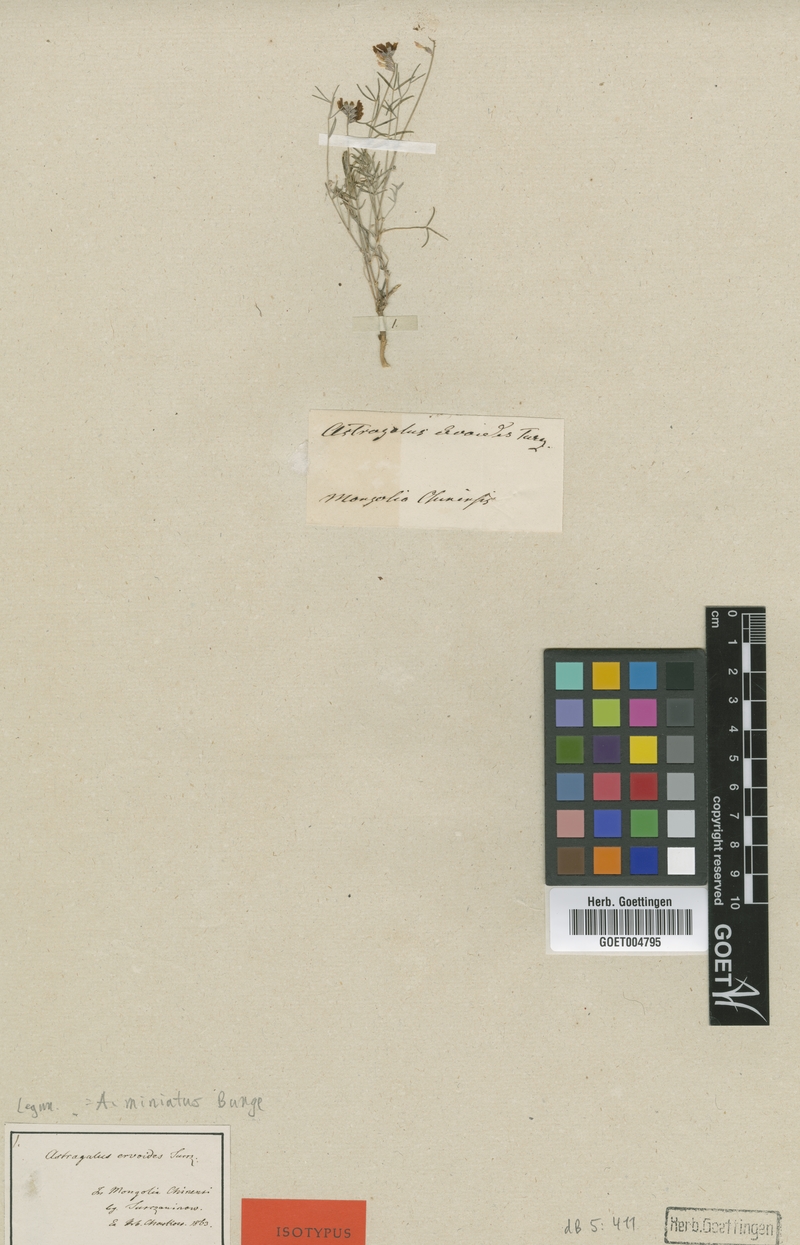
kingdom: Plantae
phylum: Tracheophyta
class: Magnoliopsida
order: Fabales
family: Fabaceae
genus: Astragalus
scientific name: Astragalus miniatus
